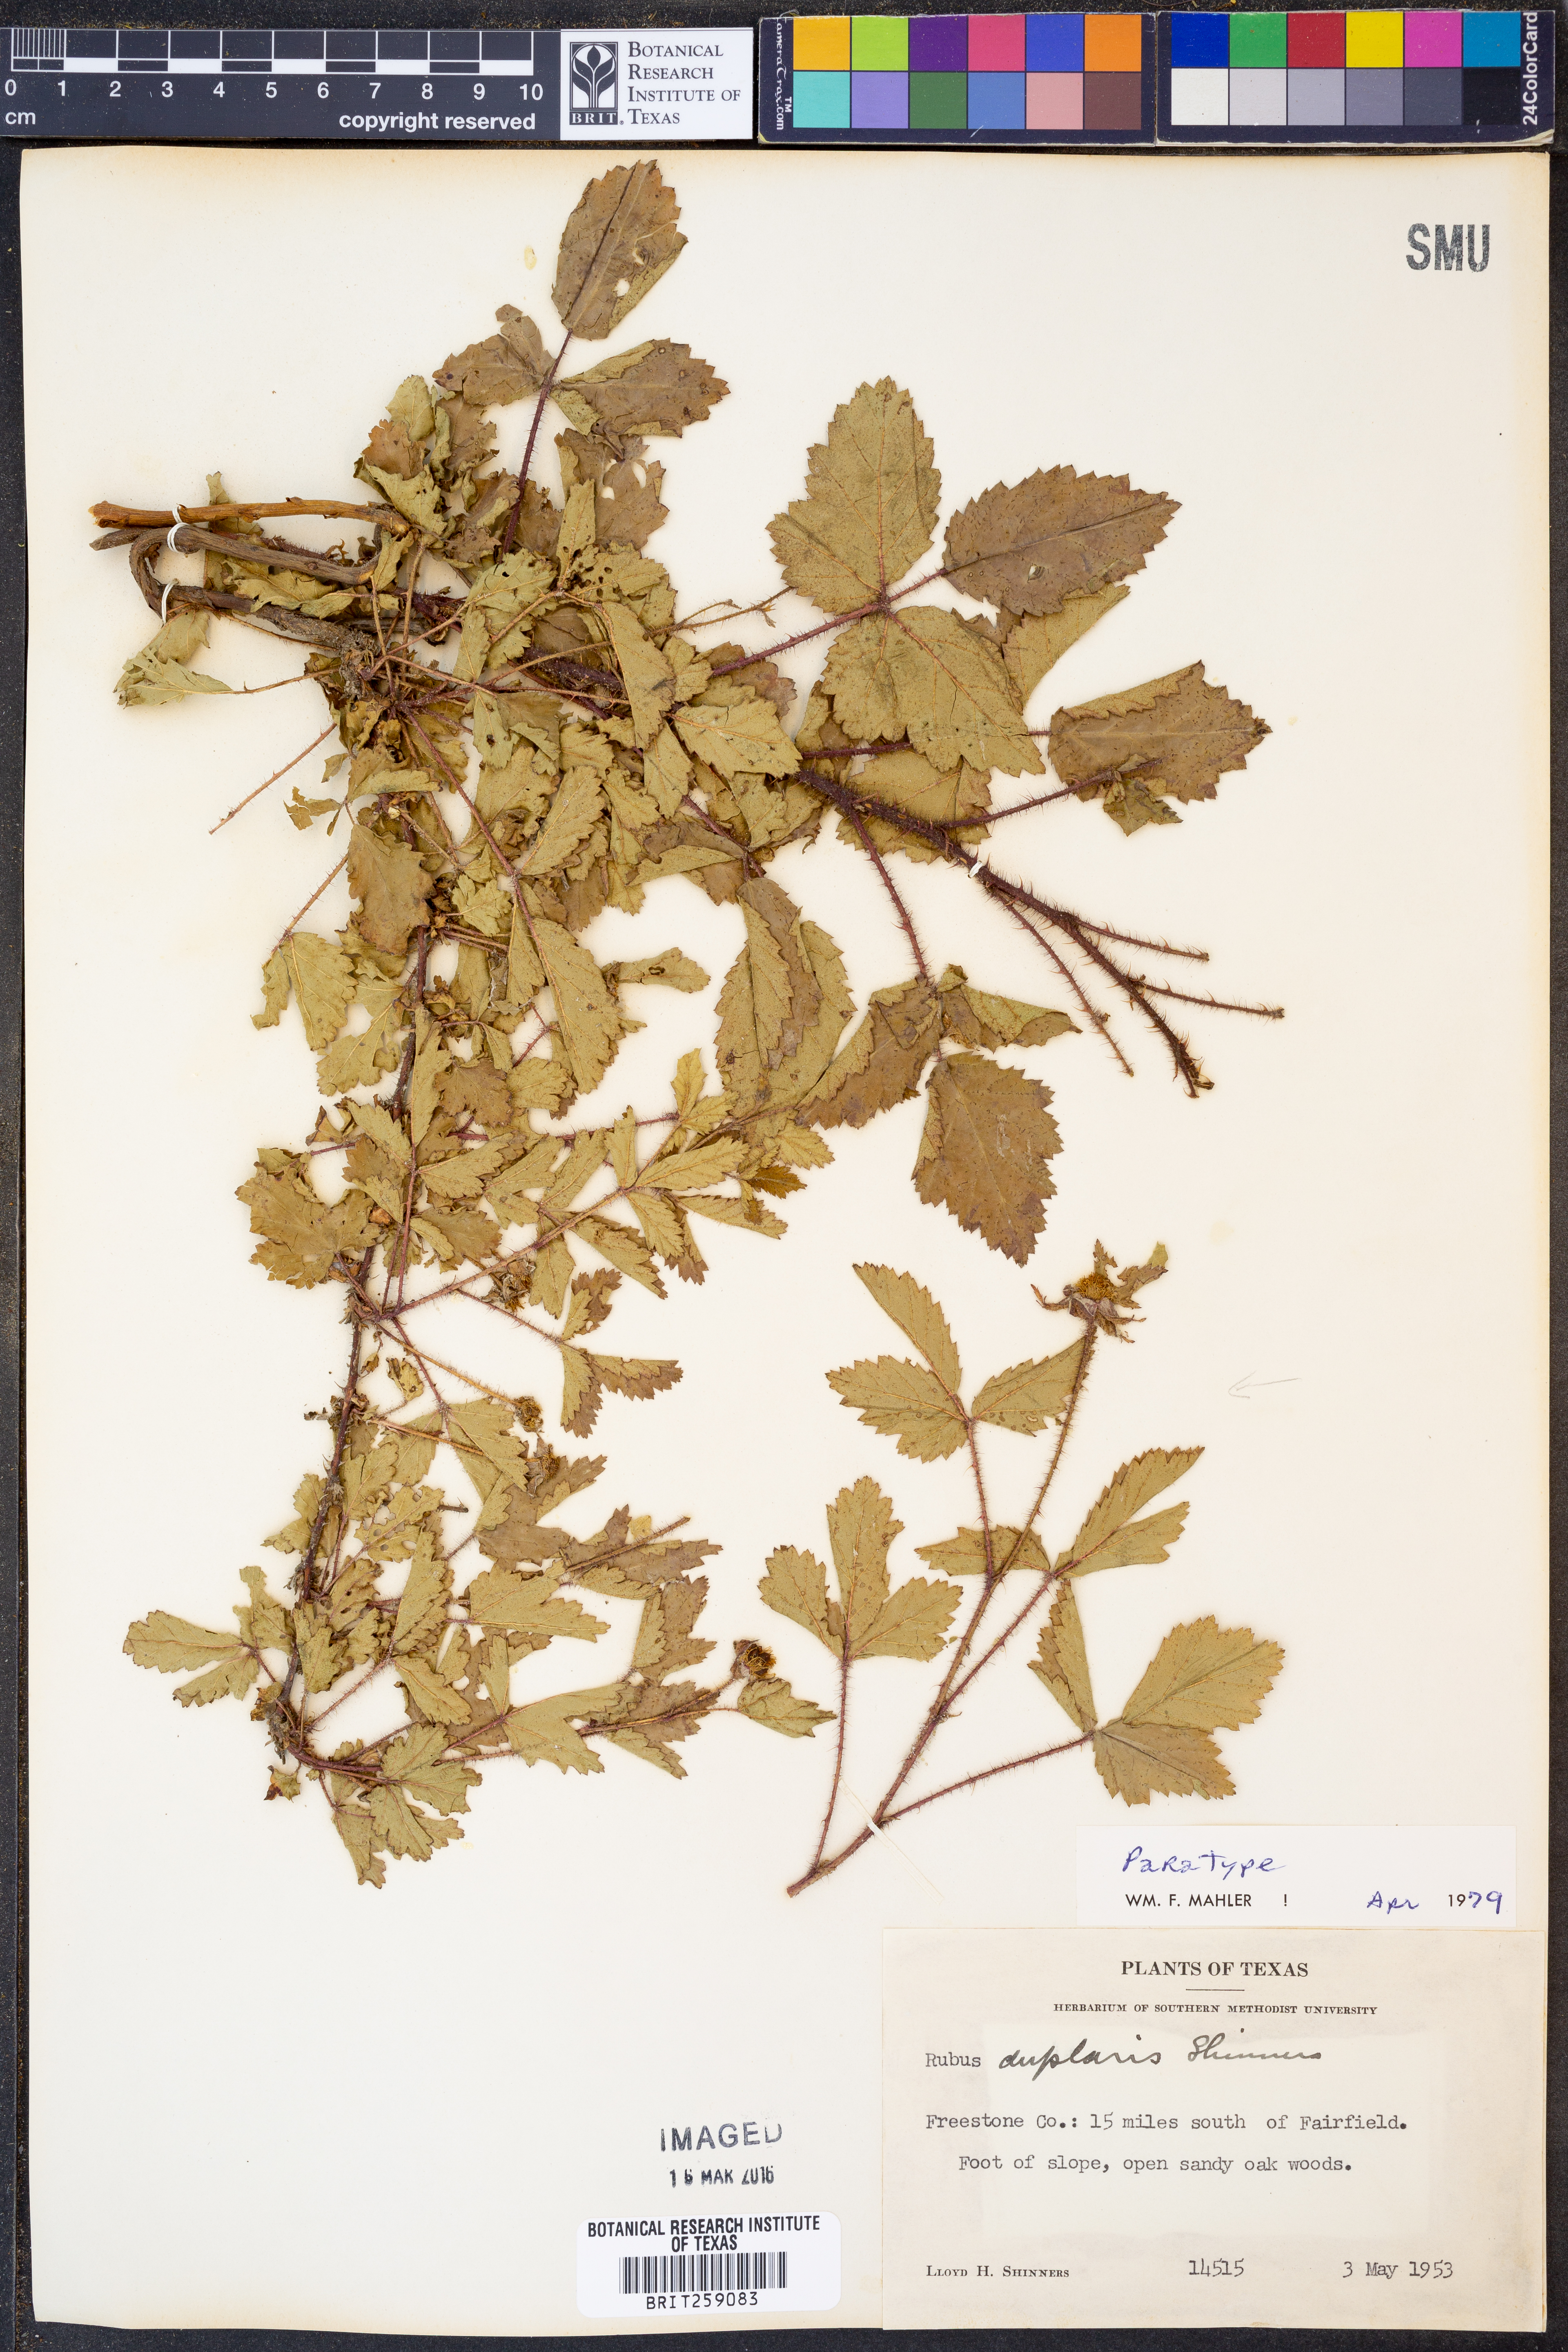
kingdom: Plantae
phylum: Tracheophyta
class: Magnoliopsida
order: Rosales
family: Rosaceae
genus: Rubus
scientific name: Rubus riograndis
